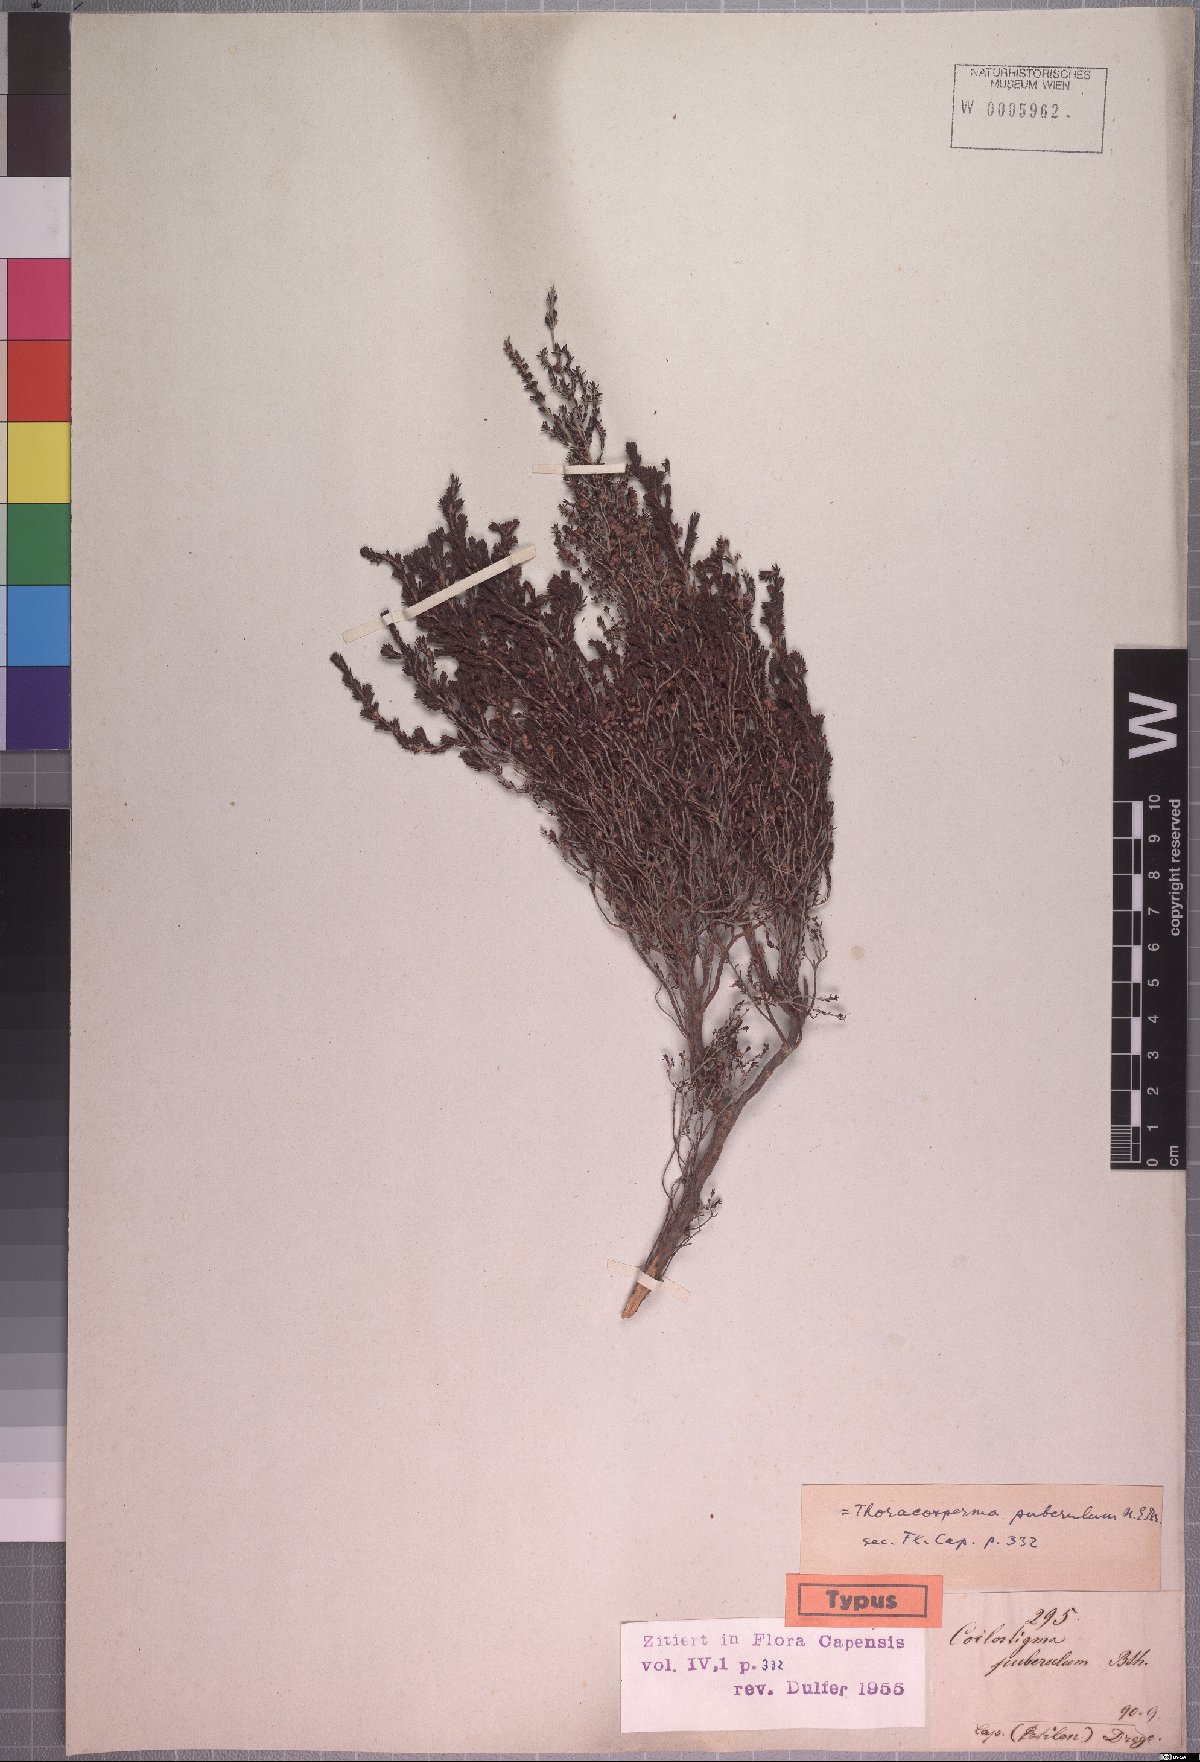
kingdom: Plantae
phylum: Tracheophyta
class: Magnoliopsida
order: Ericales
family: Ericaceae
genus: Erica
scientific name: Erica puberuliflora
